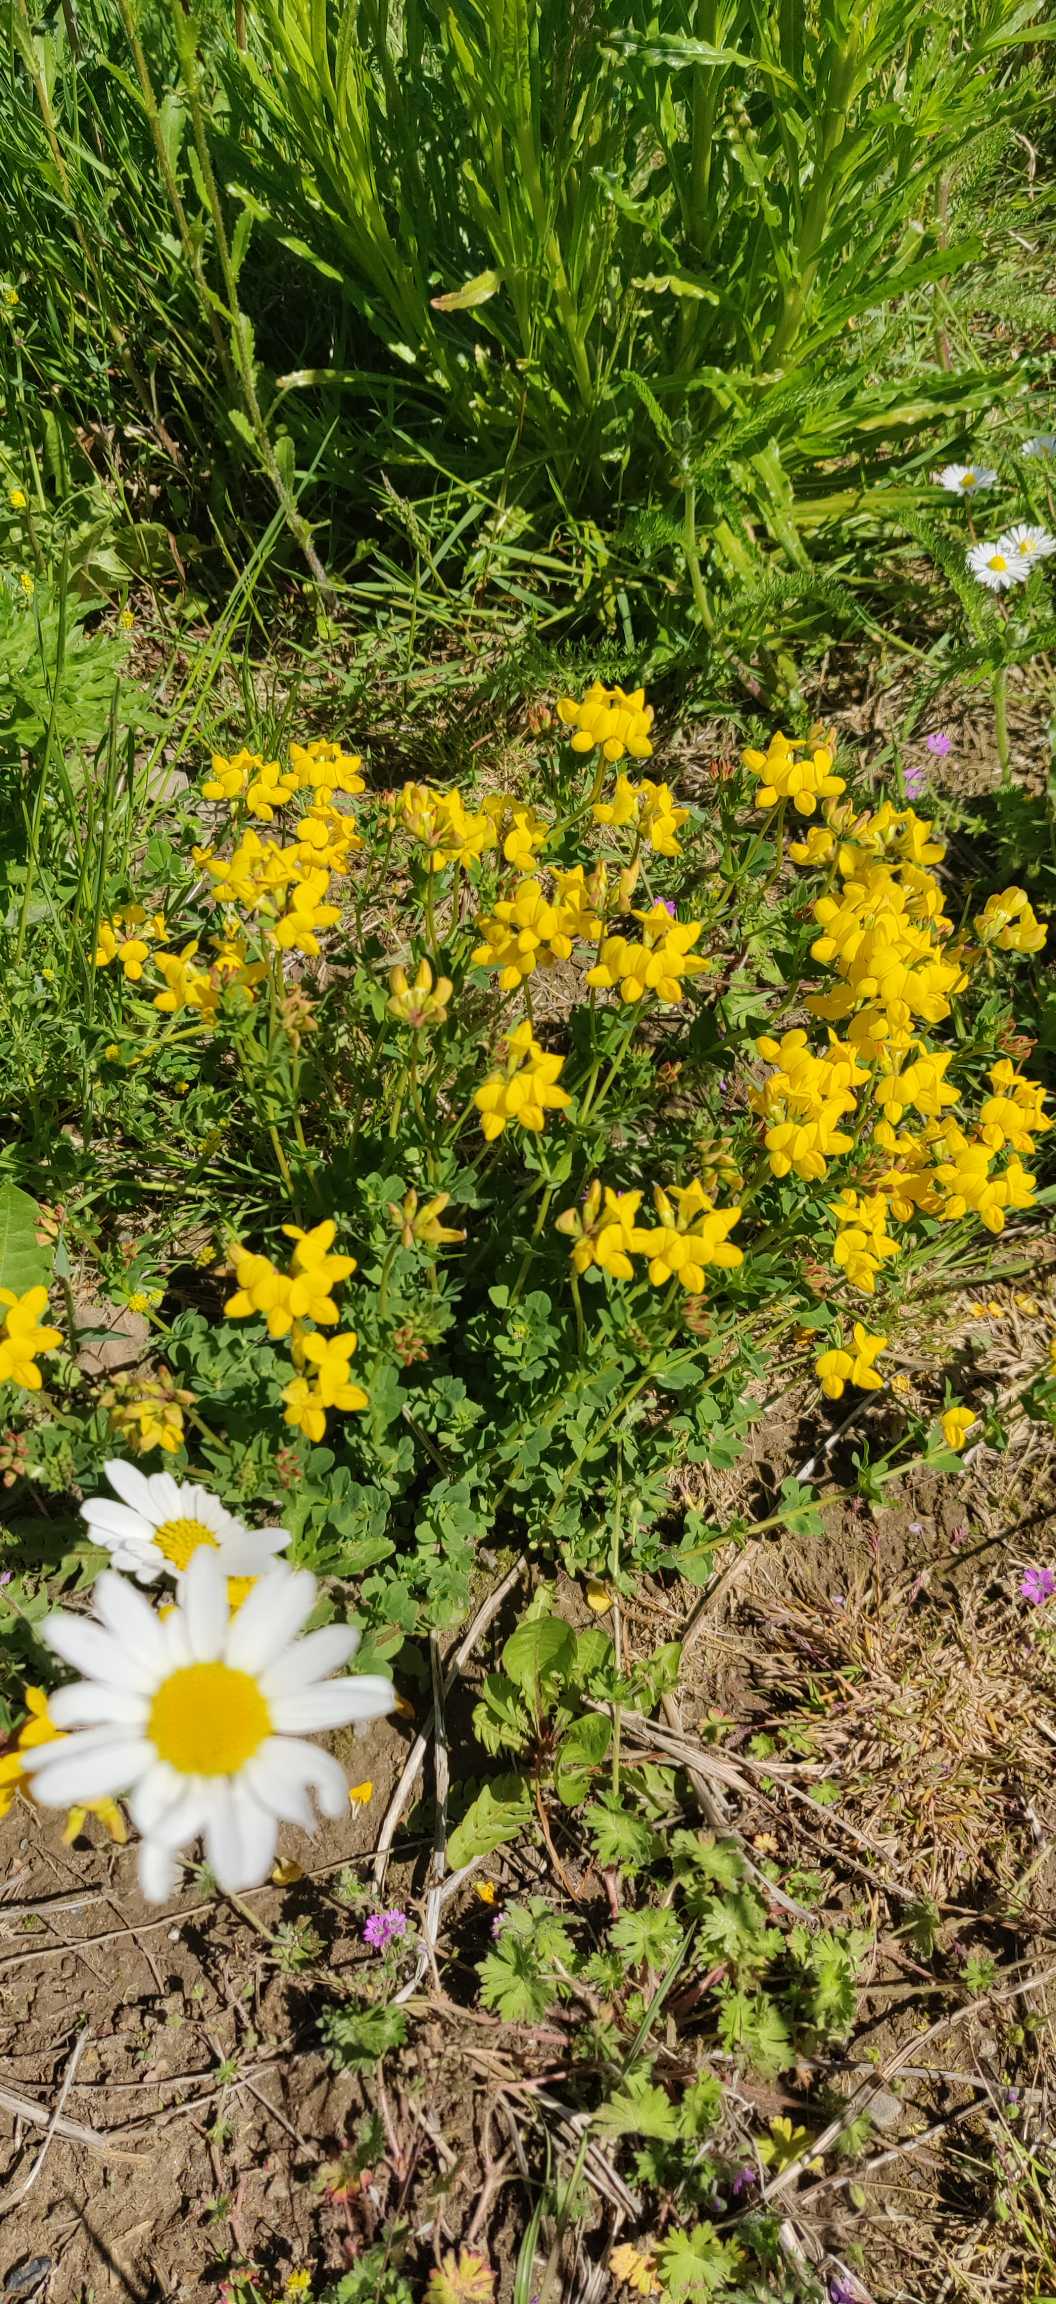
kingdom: Plantae
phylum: Tracheophyta
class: Magnoliopsida
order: Fabales
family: Fabaceae
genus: Lotus
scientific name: Lotus corniculatus
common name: Almindelig kællingetand
